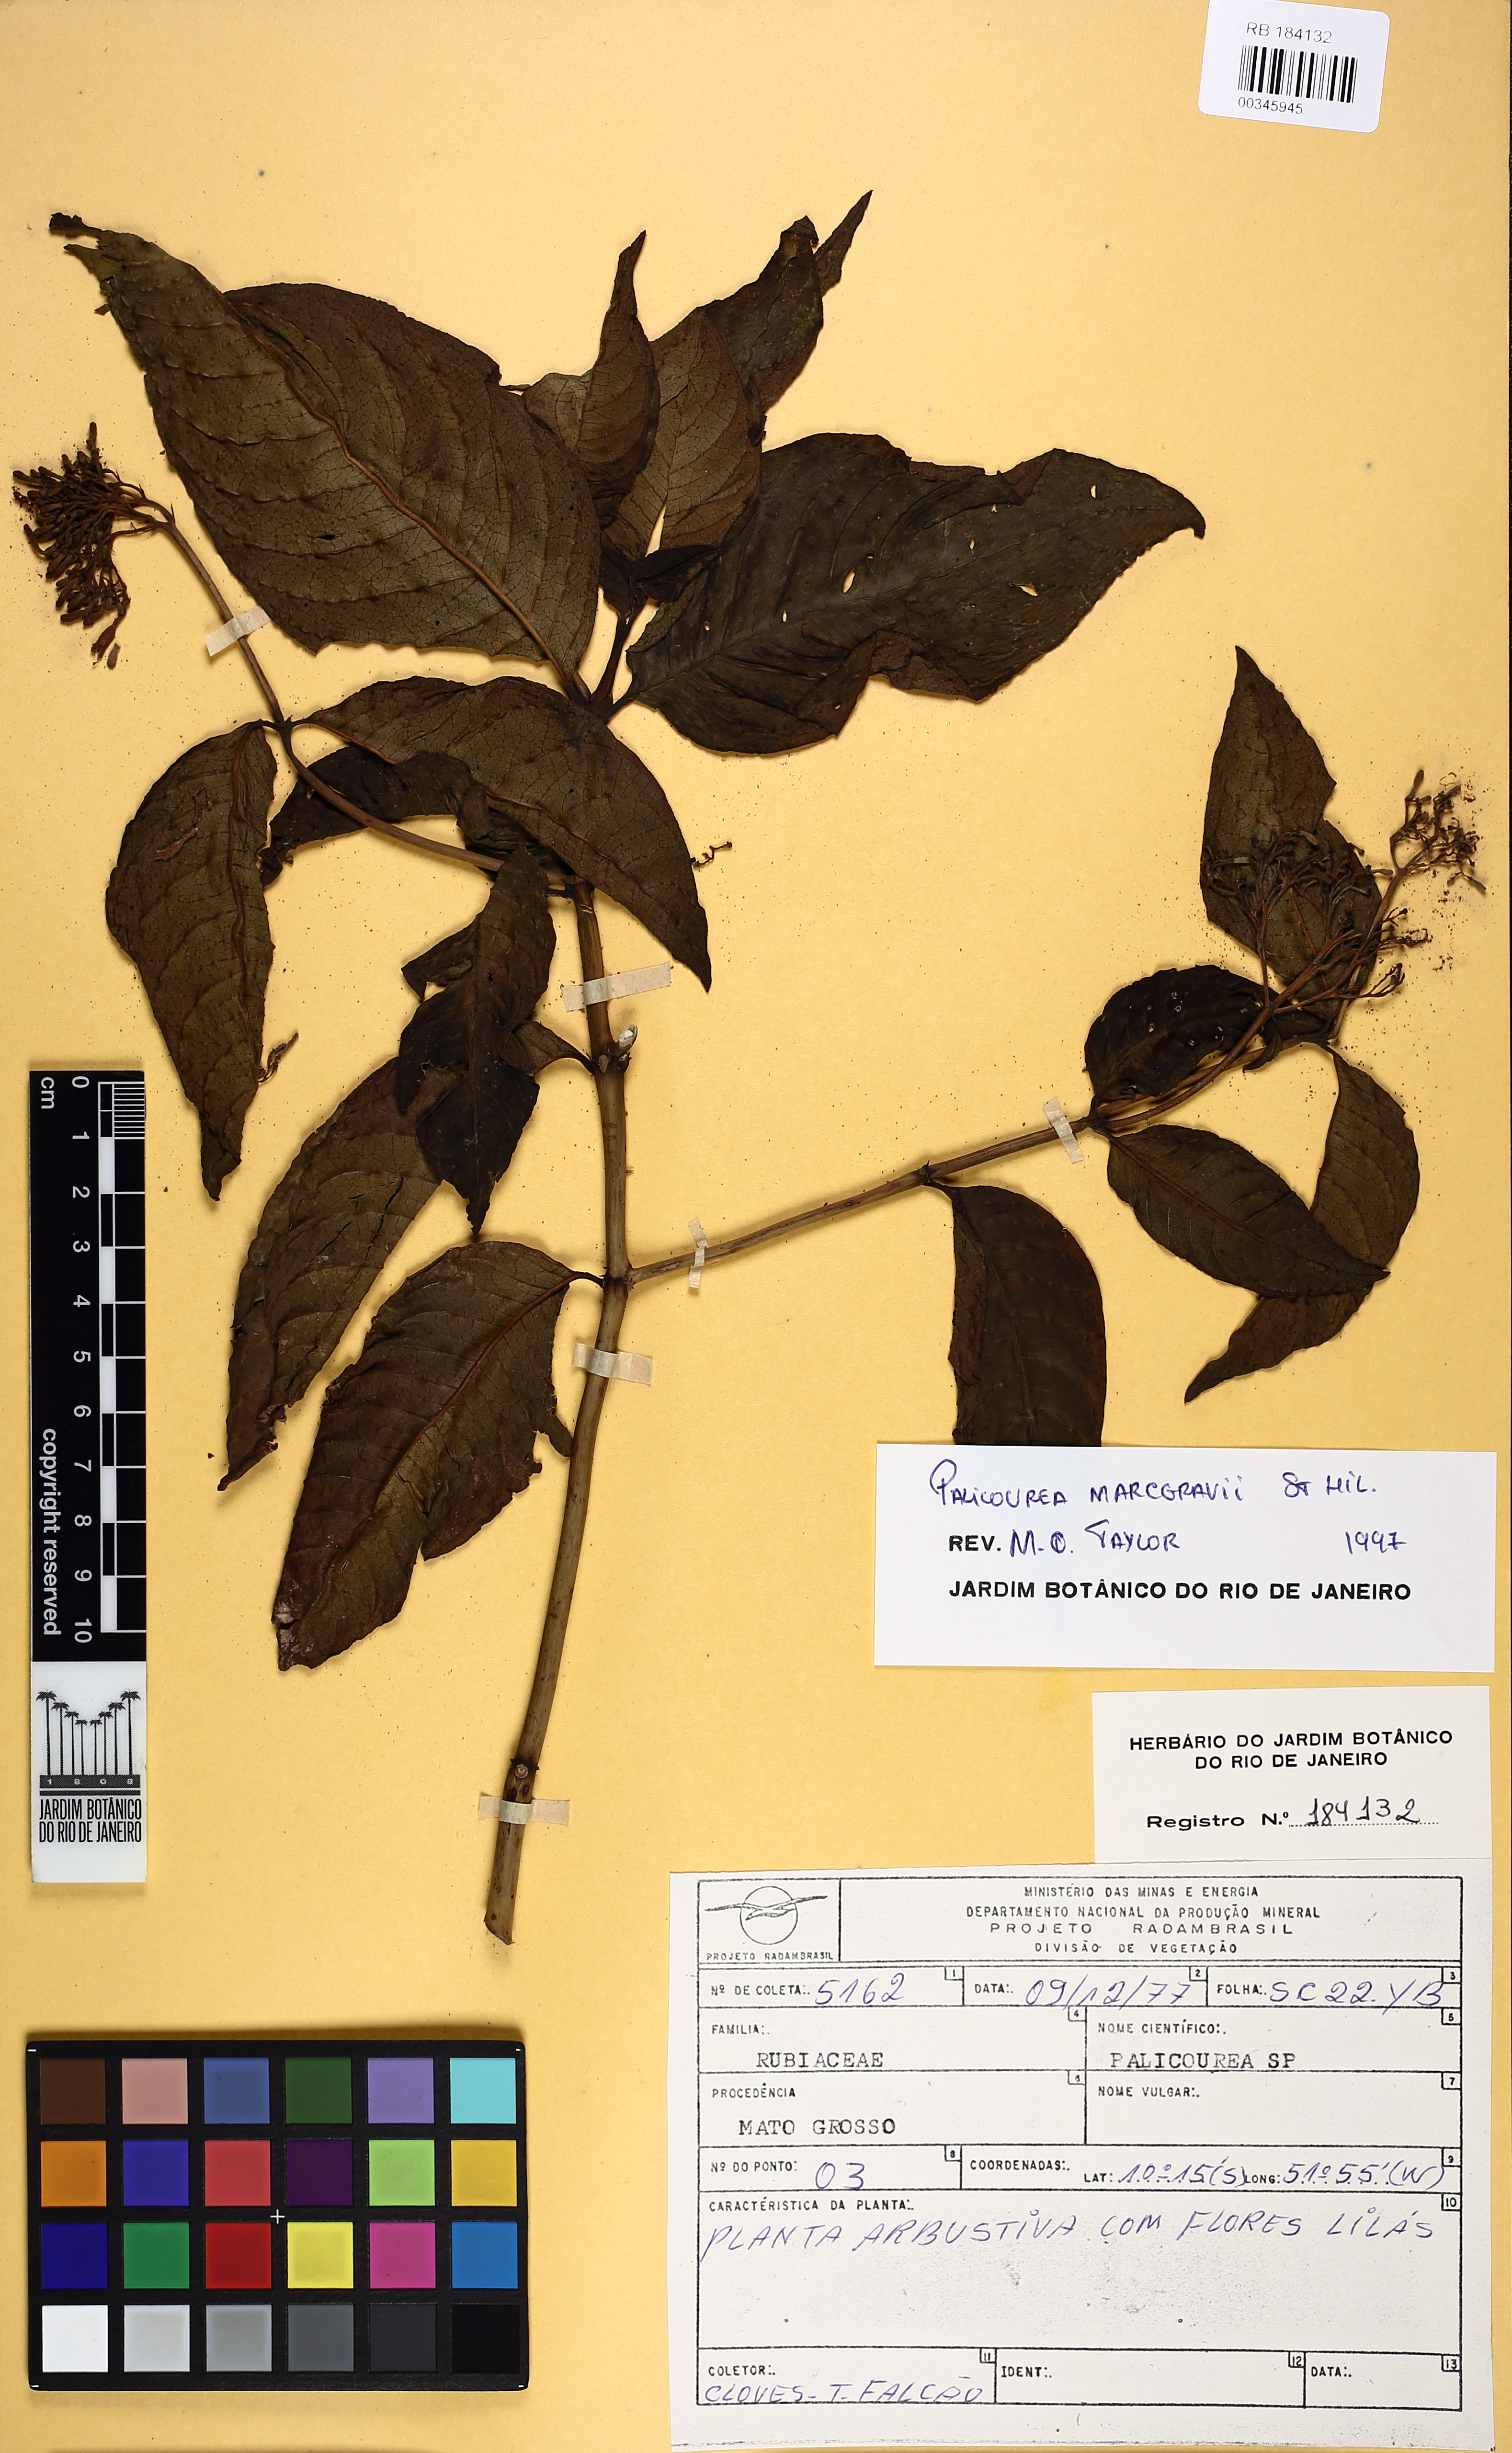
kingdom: Plantae
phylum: Tracheophyta
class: Magnoliopsida
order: Gentianales
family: Rubiaceae
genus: Palicourea
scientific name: Palicourea marcgravii
